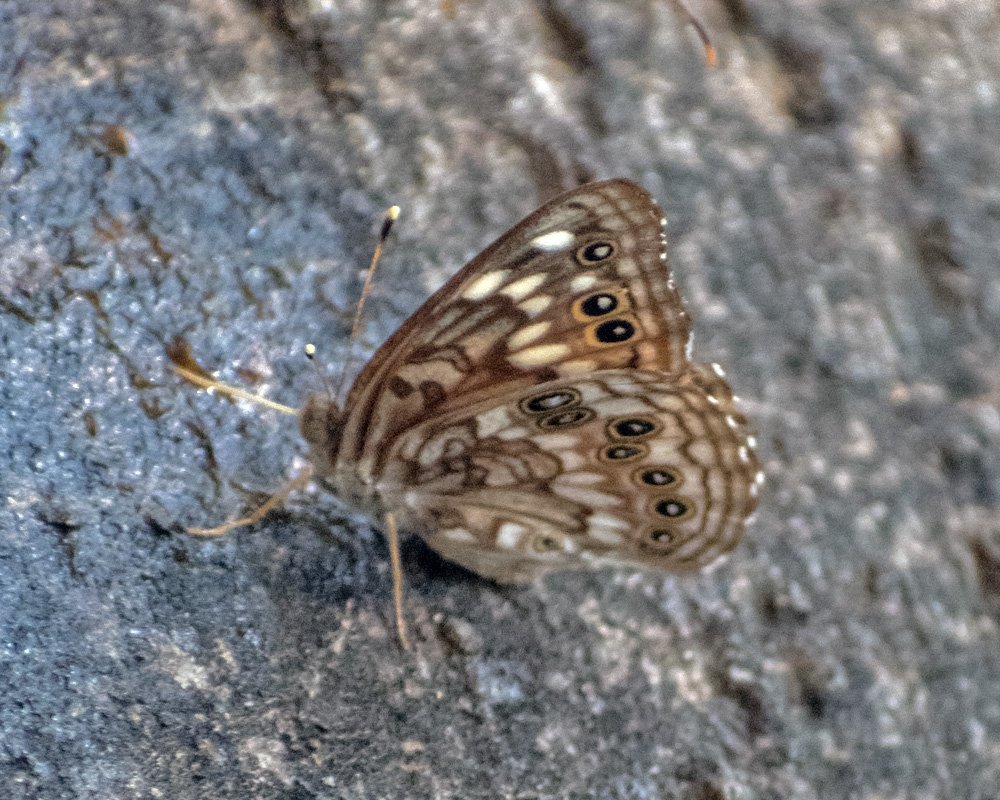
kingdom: Animalia
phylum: Arthropoda
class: Insecta
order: Lepidoptera
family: Nymphalidae
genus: Asterocampa
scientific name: Asterocampa celtis
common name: Hackberry Emperor
